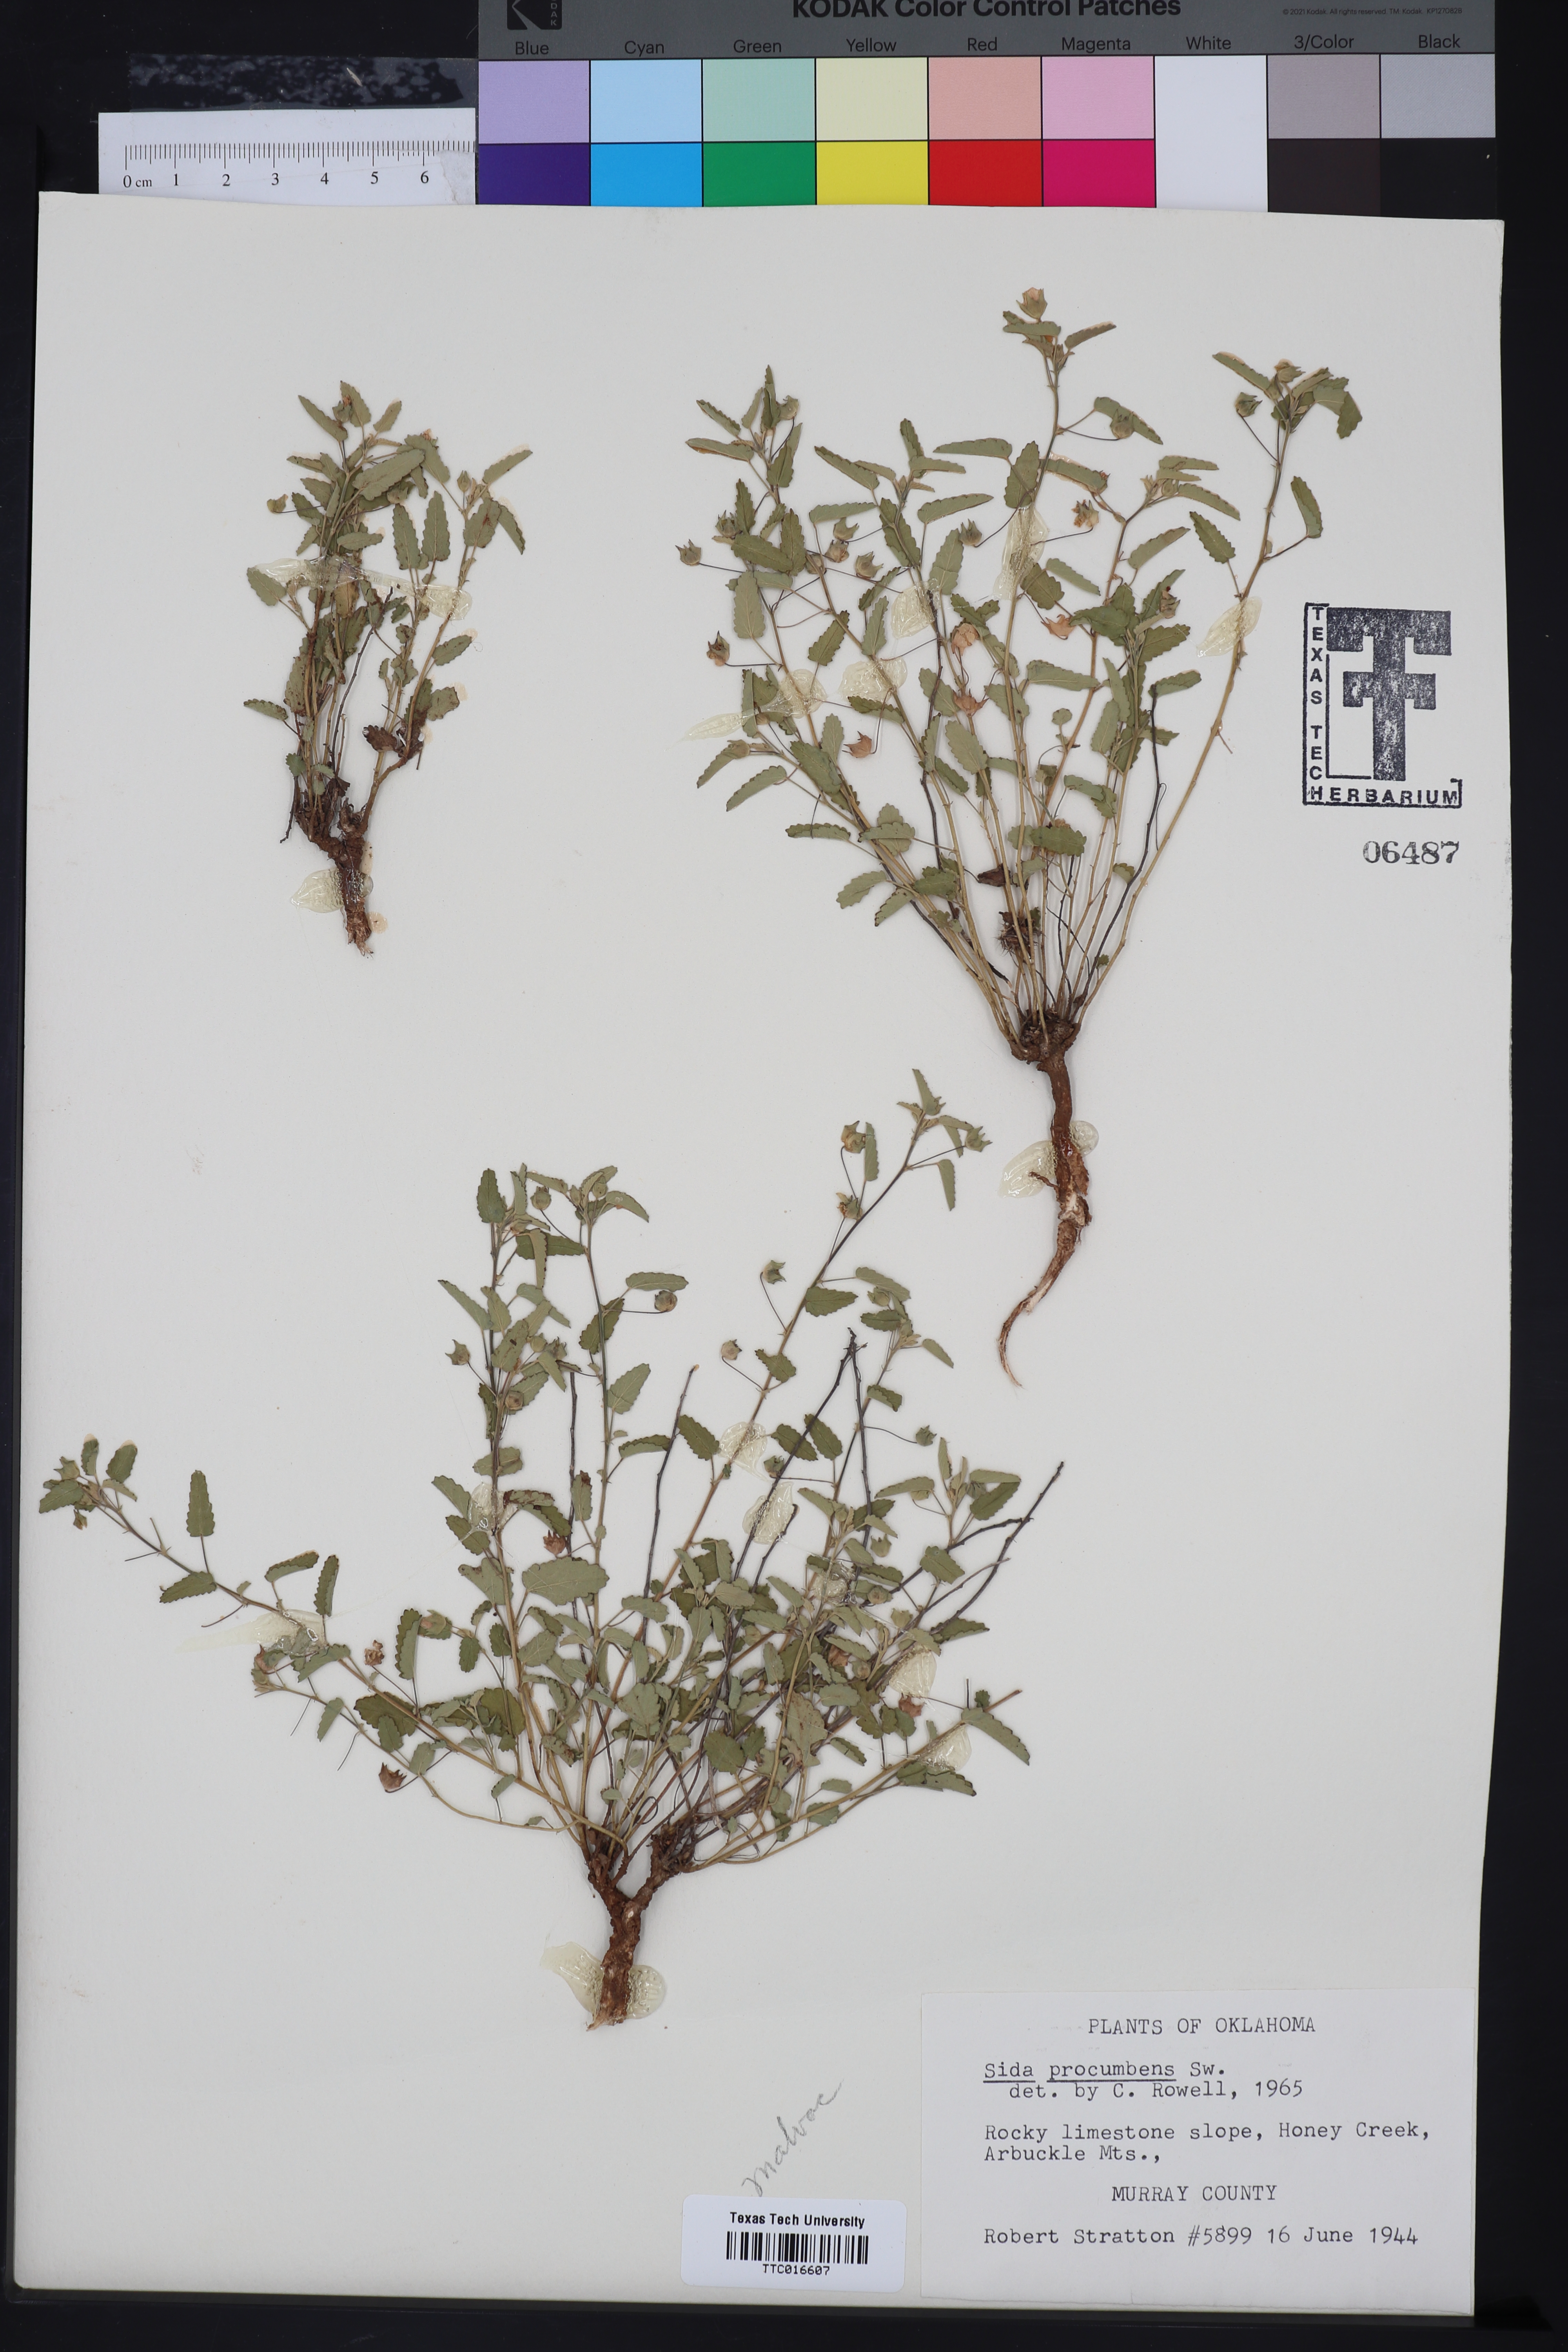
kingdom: Plantae
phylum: Tracheophyta
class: Magnoliopsida
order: Malvales
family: Malvaceae
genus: Sida
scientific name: Sida abutilifolia
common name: Spreading fanpetals
